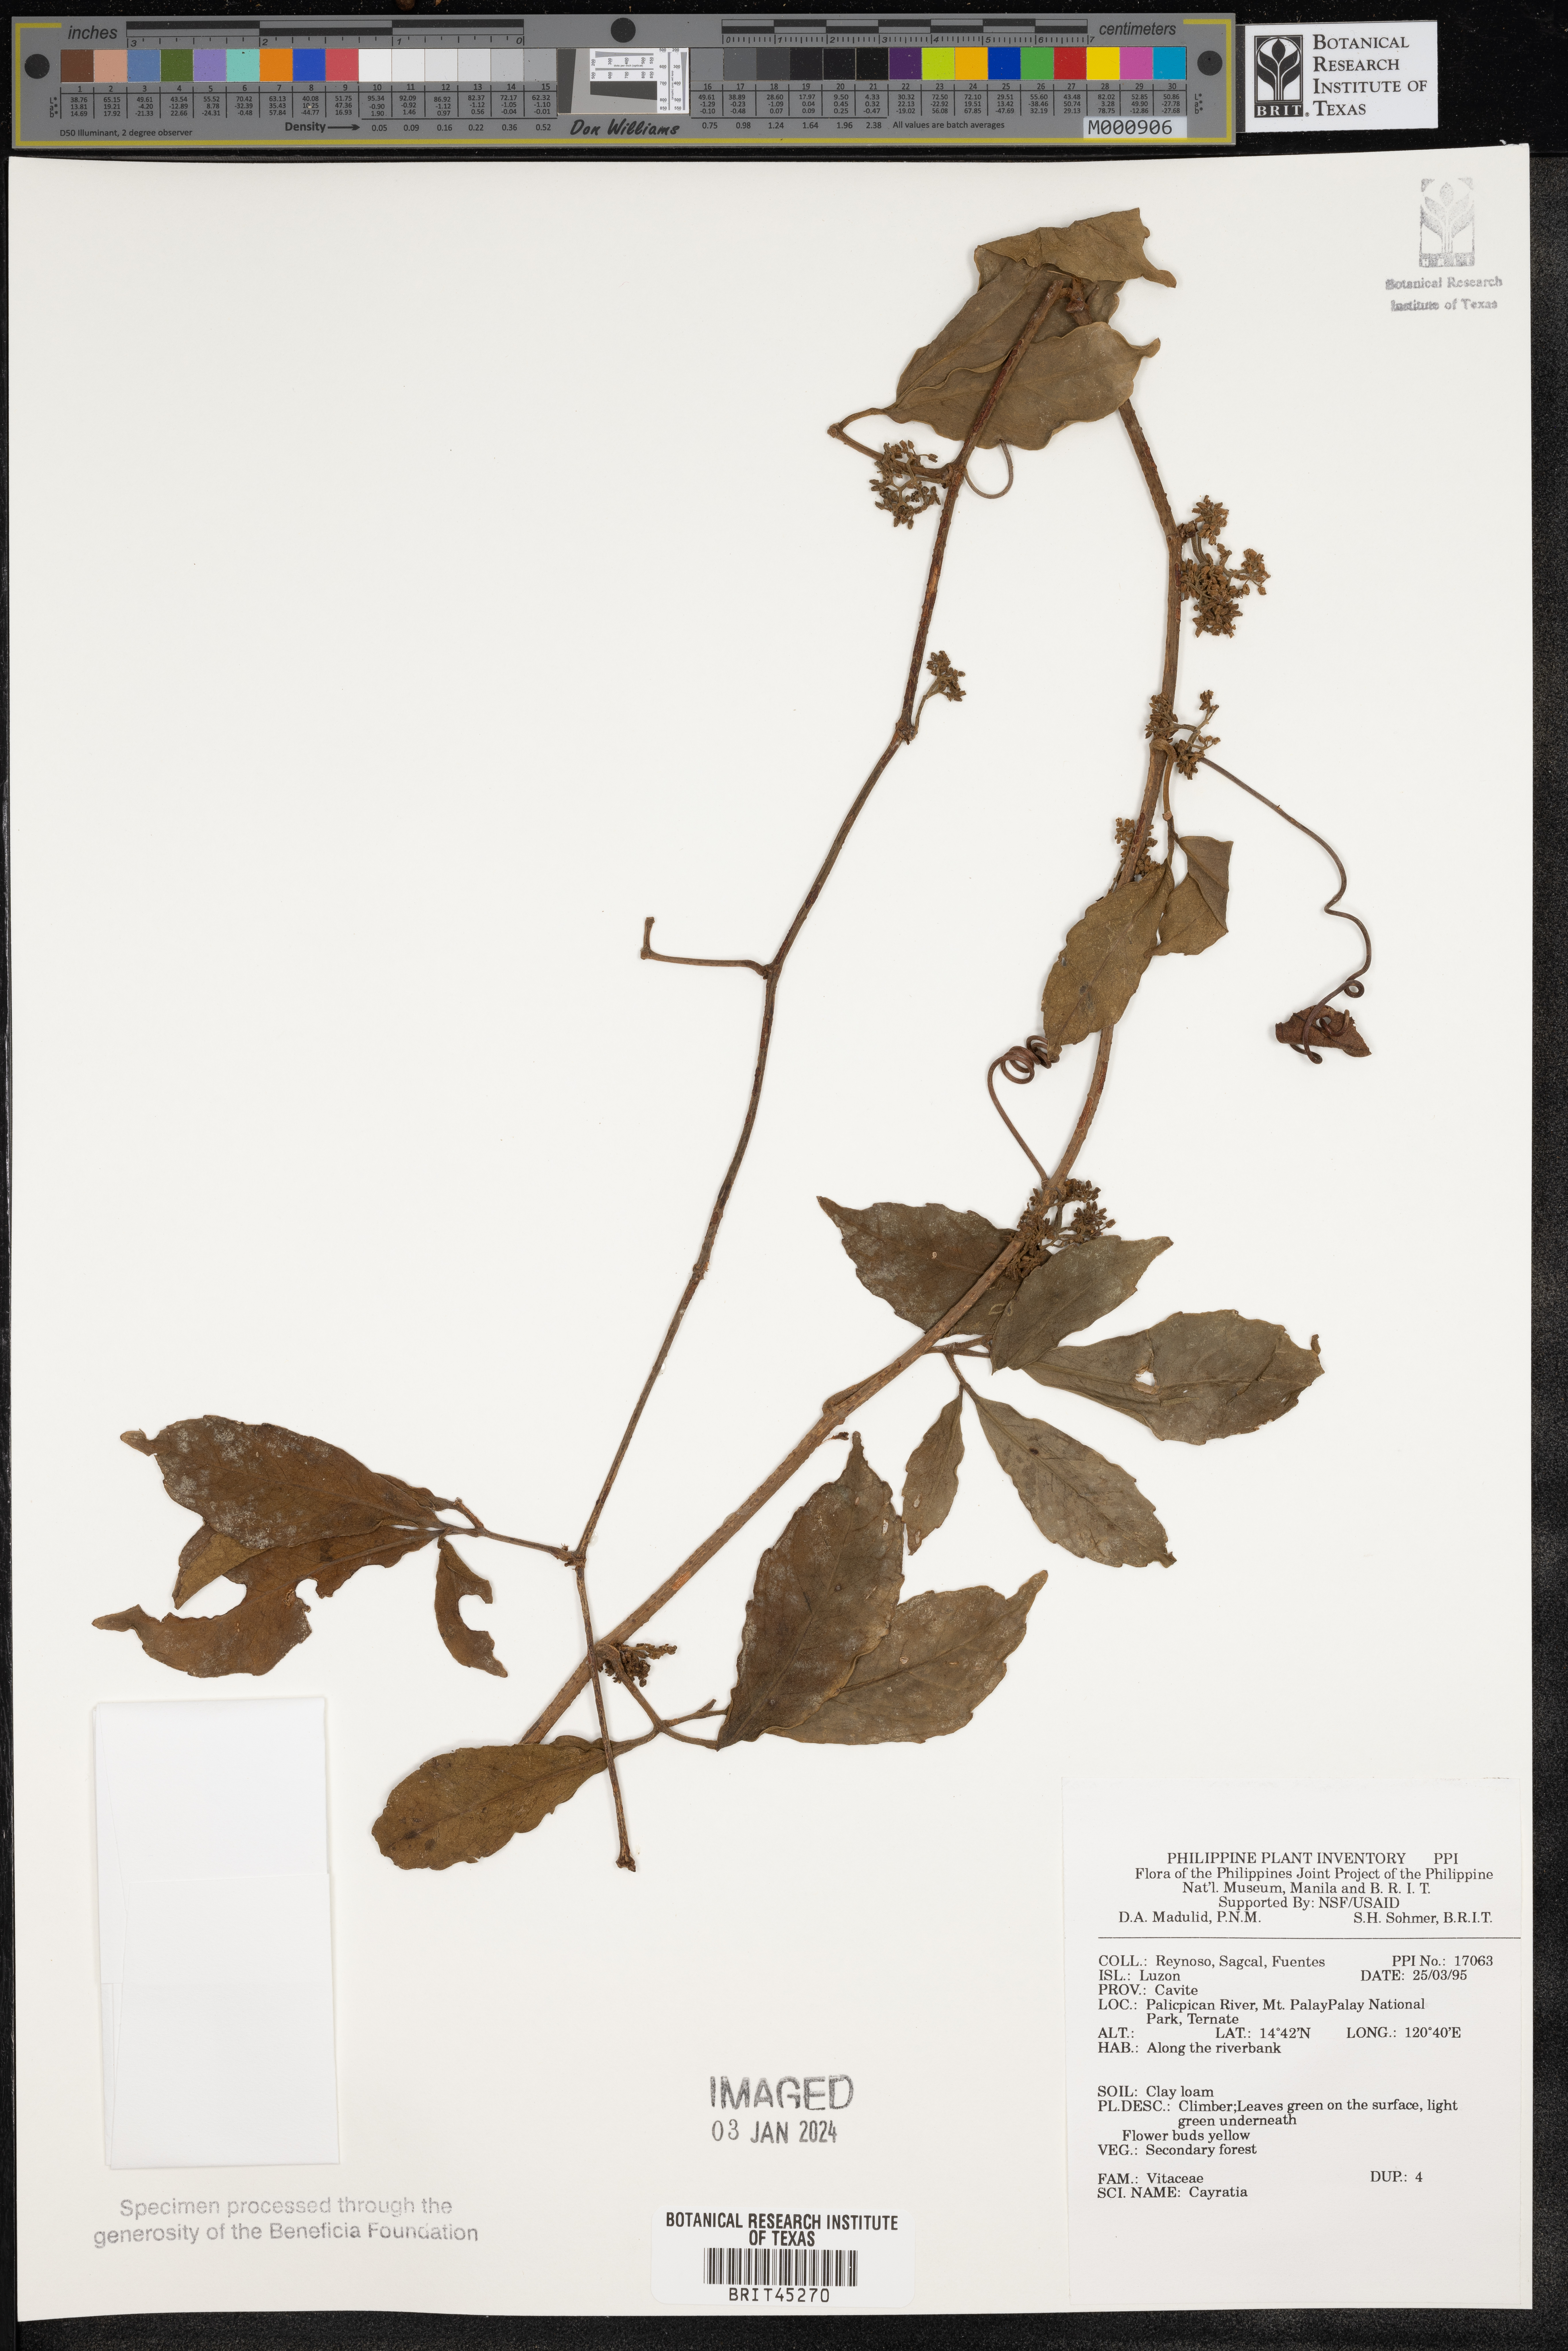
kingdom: Plantae
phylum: Tracheophyta
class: Magnoliopsida
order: Vitales
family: Vitaceae
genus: Cayratia
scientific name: Cayratia
